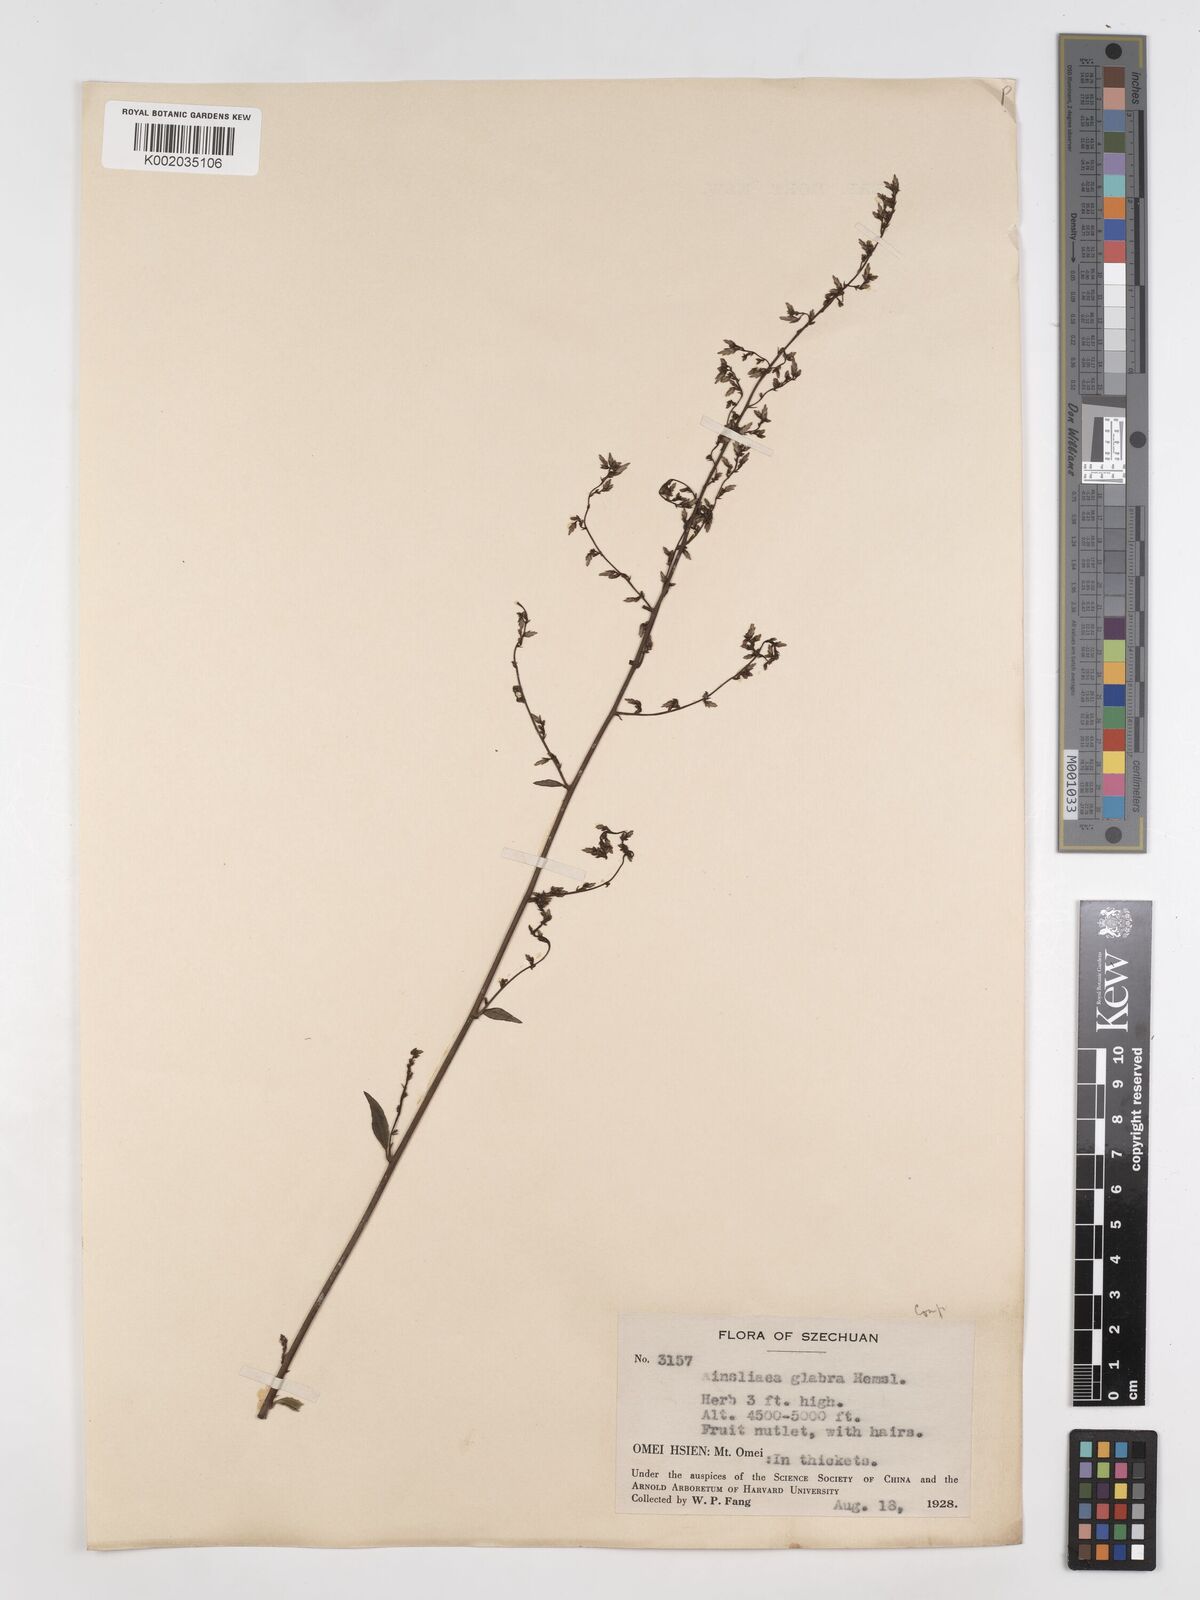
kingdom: Plantae
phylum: Tracheophyta
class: Magnoliopsida
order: Asterales
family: Asteraceae
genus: Ainsliaea
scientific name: Ainsliaea glabra
